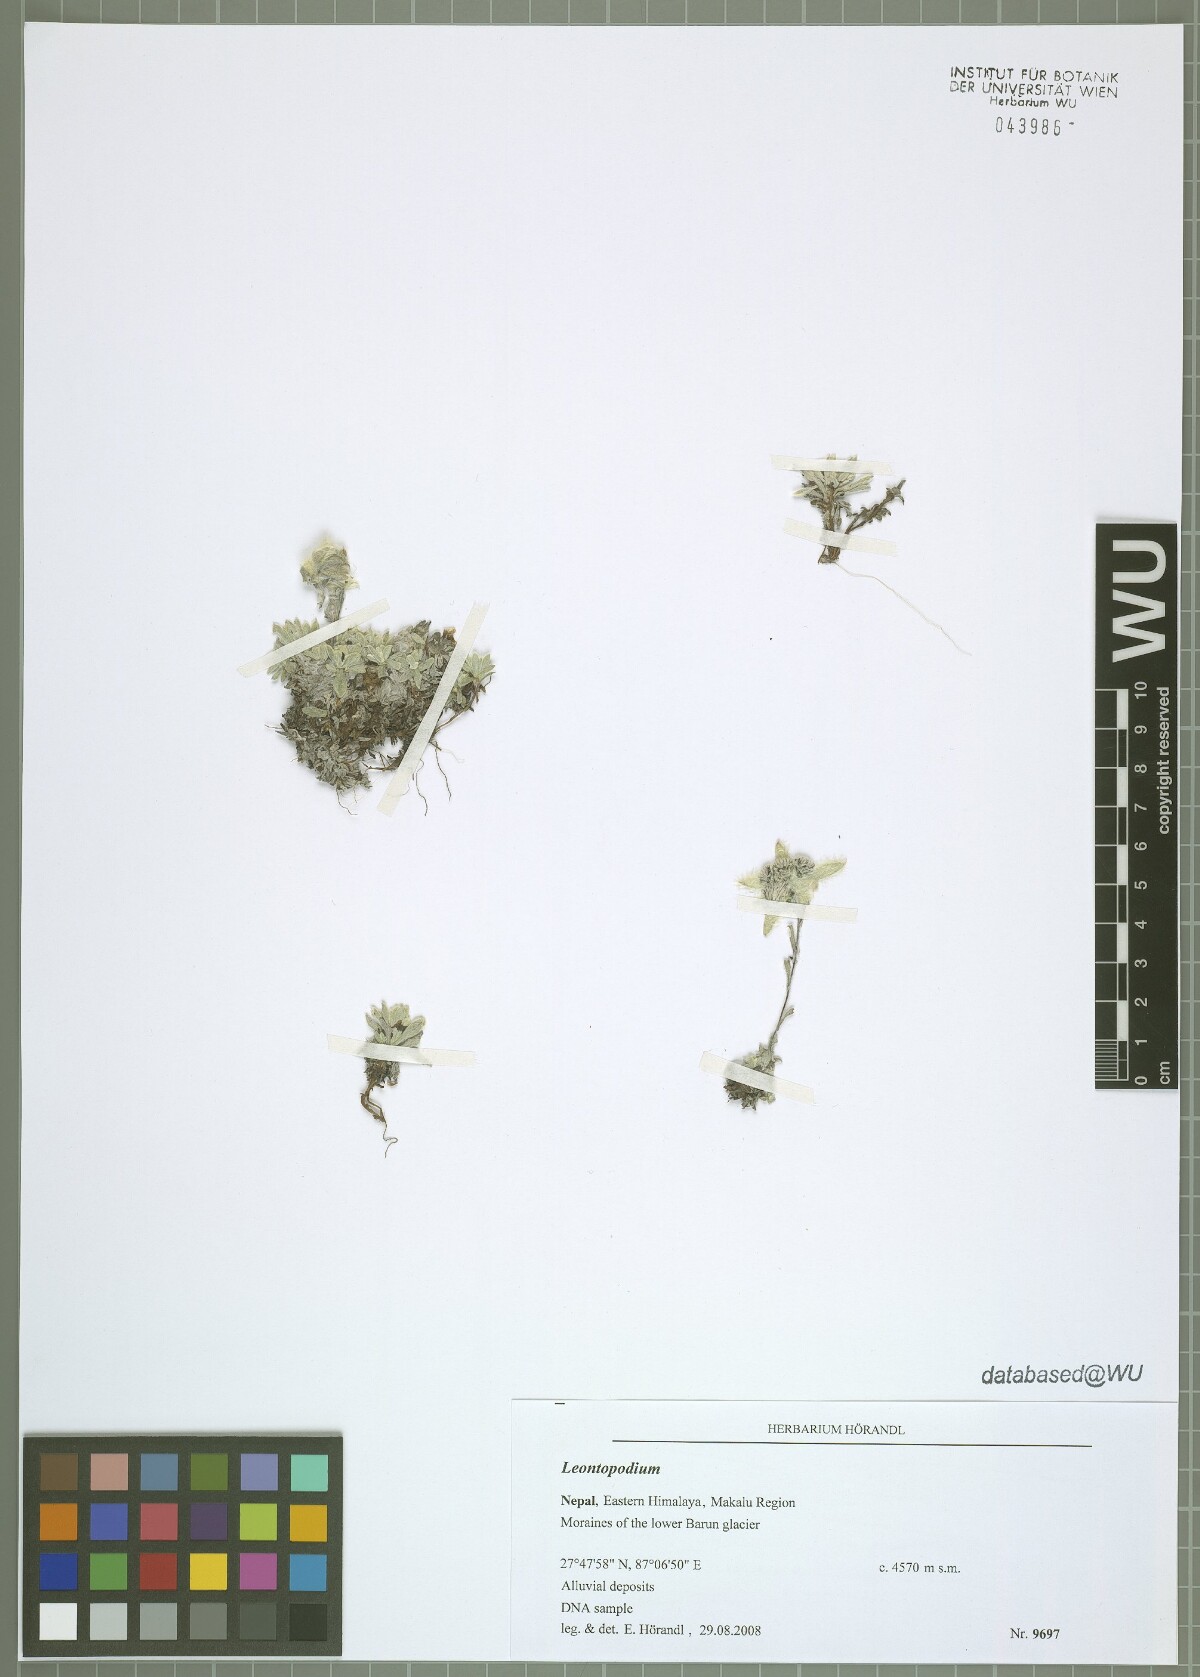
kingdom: Plantae
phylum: Tracheophyta
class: Magnoliopsida
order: Asterales
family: Asteraceae
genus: Leontopodium
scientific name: Leontopodium
